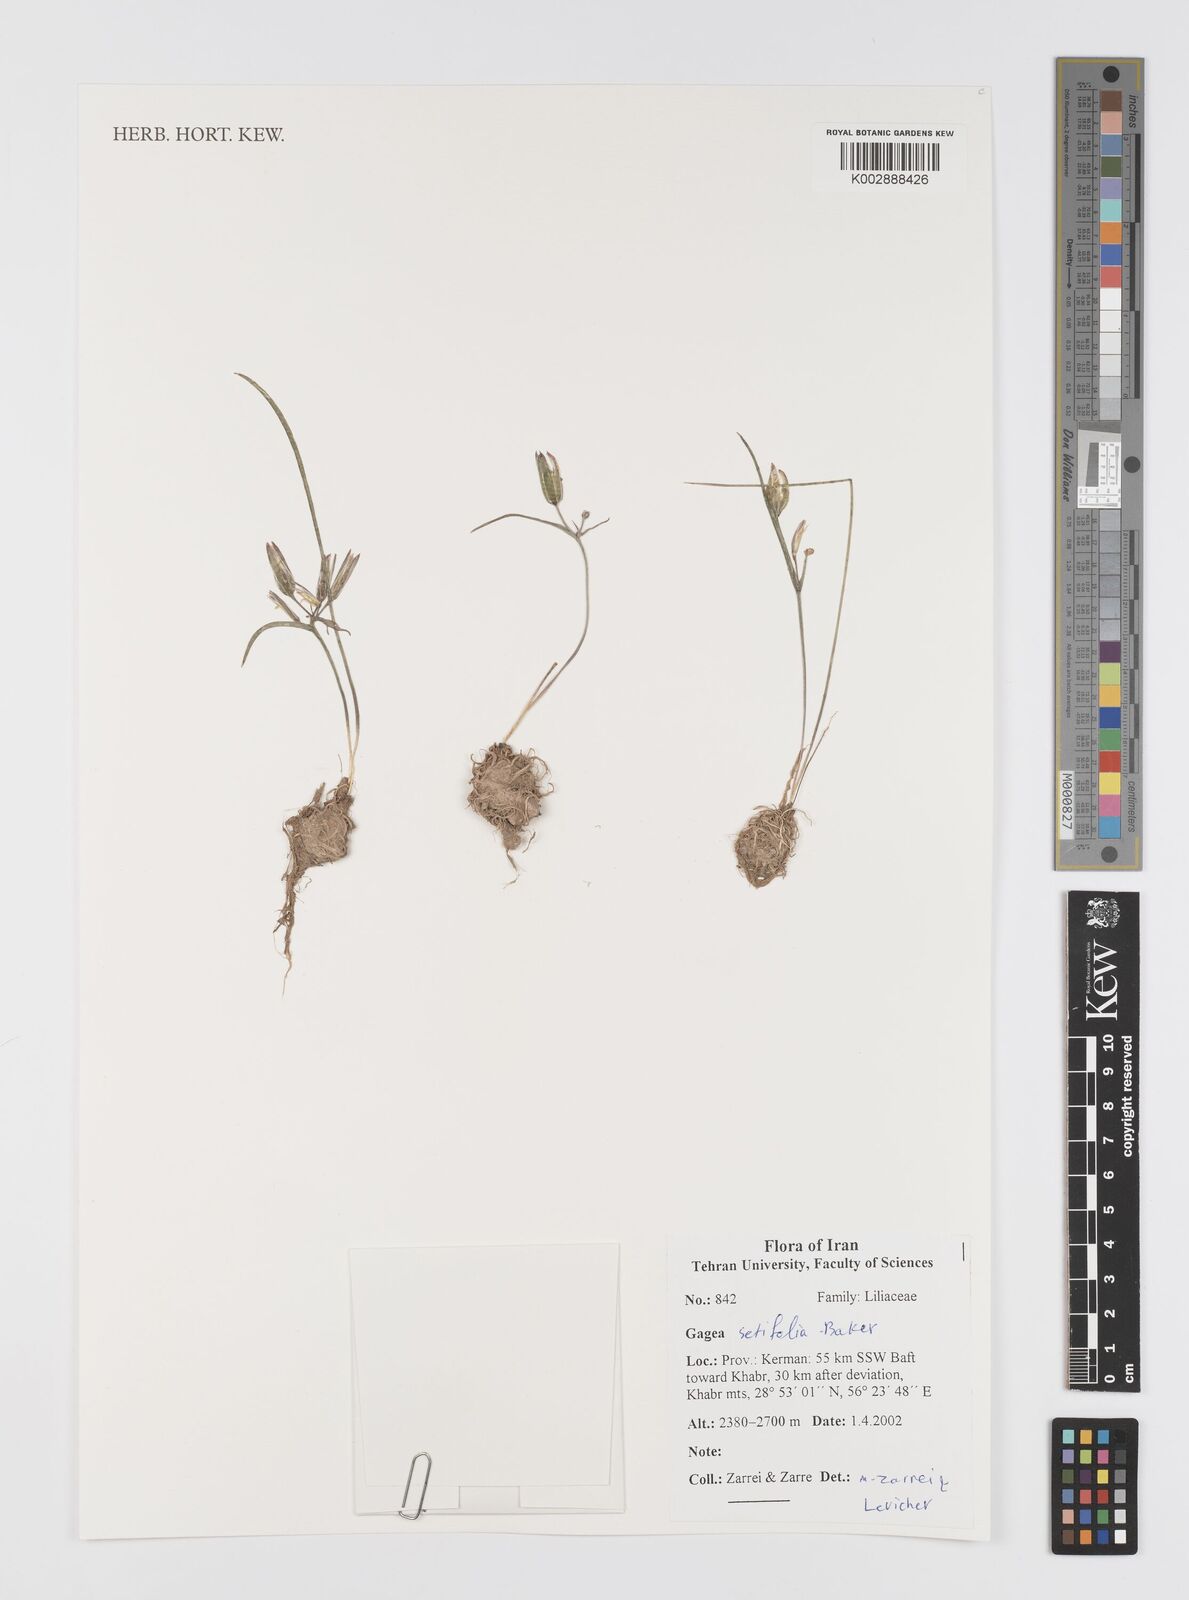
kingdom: Plantae
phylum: Tracheophyta
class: Liliopsida
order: Liliales
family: Liliaceae
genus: Gagea
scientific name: Gagea setifolia
